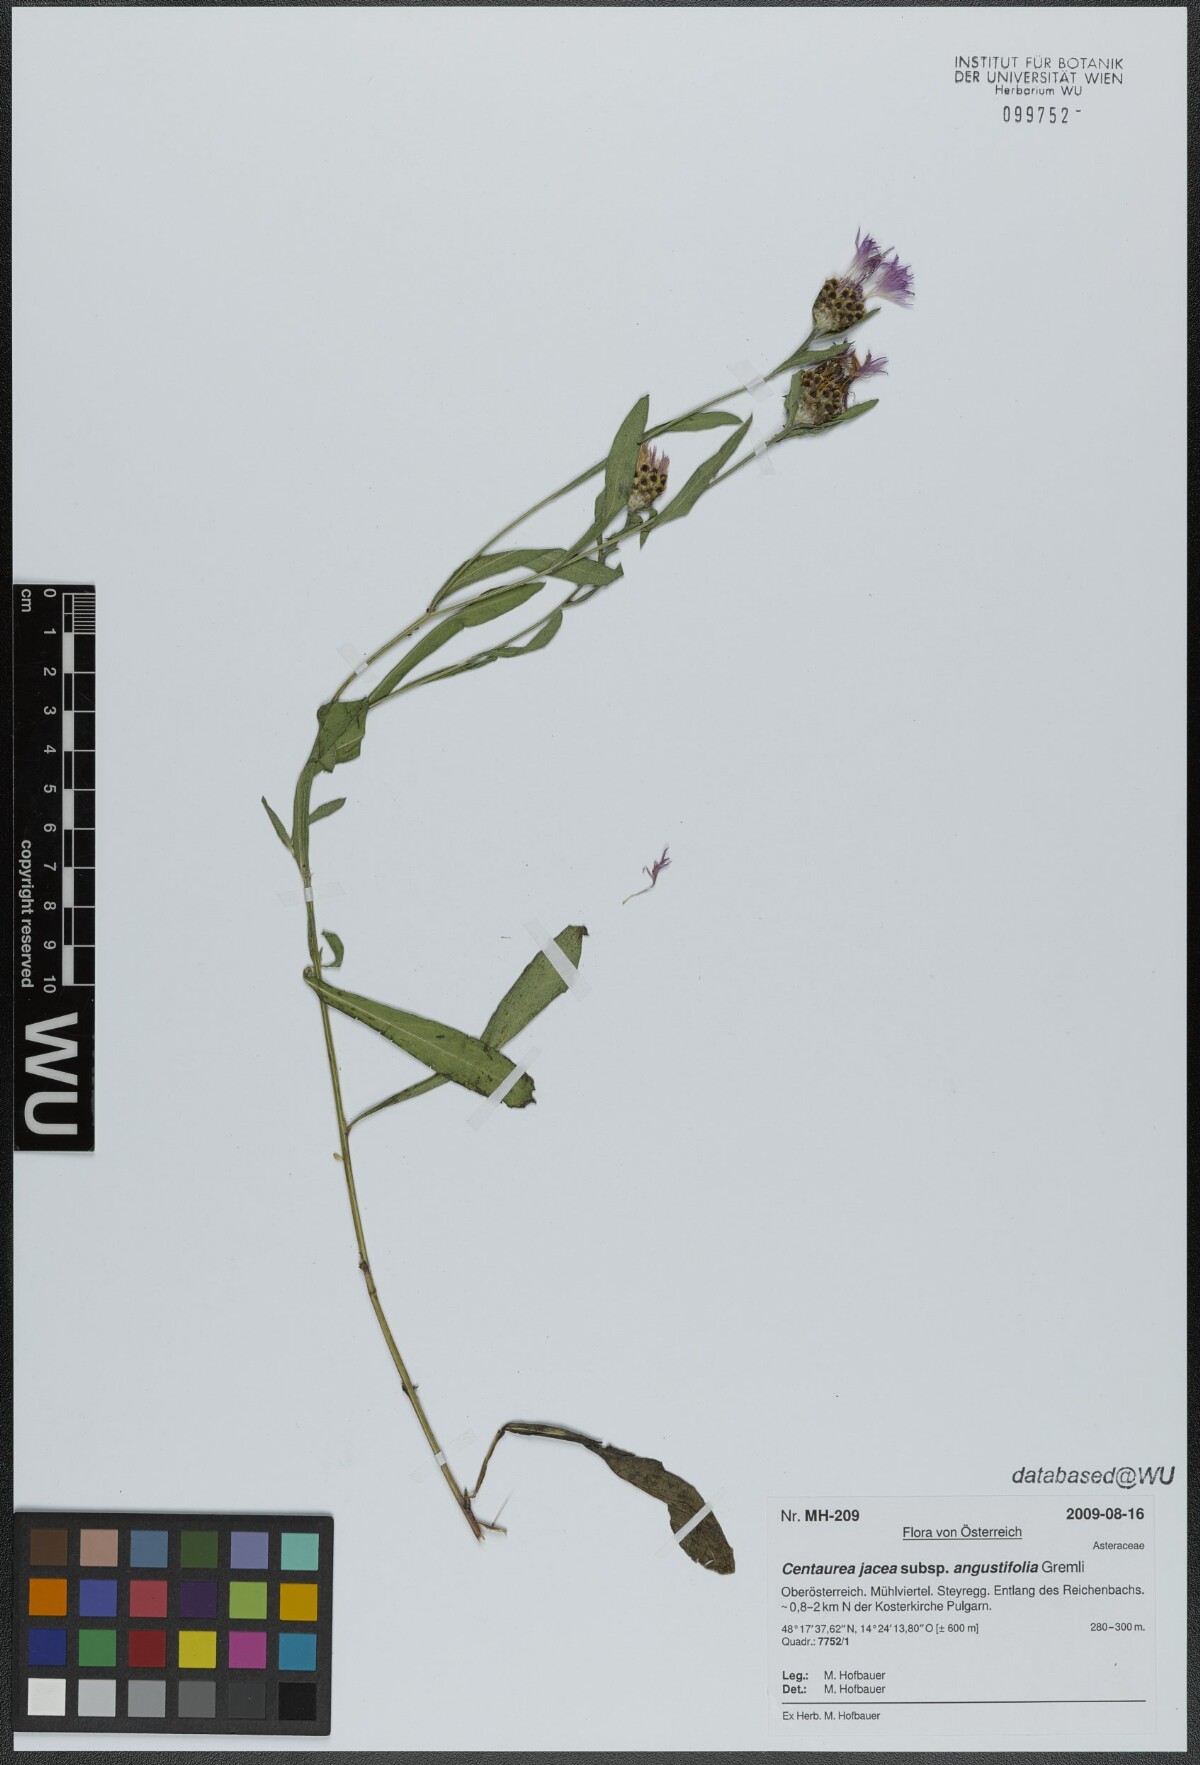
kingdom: Plantae
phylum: Tracheophyta
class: Magnoliopsida
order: Asterales
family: Asteraceae
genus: Centaurea
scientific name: Centaurea pannonica
